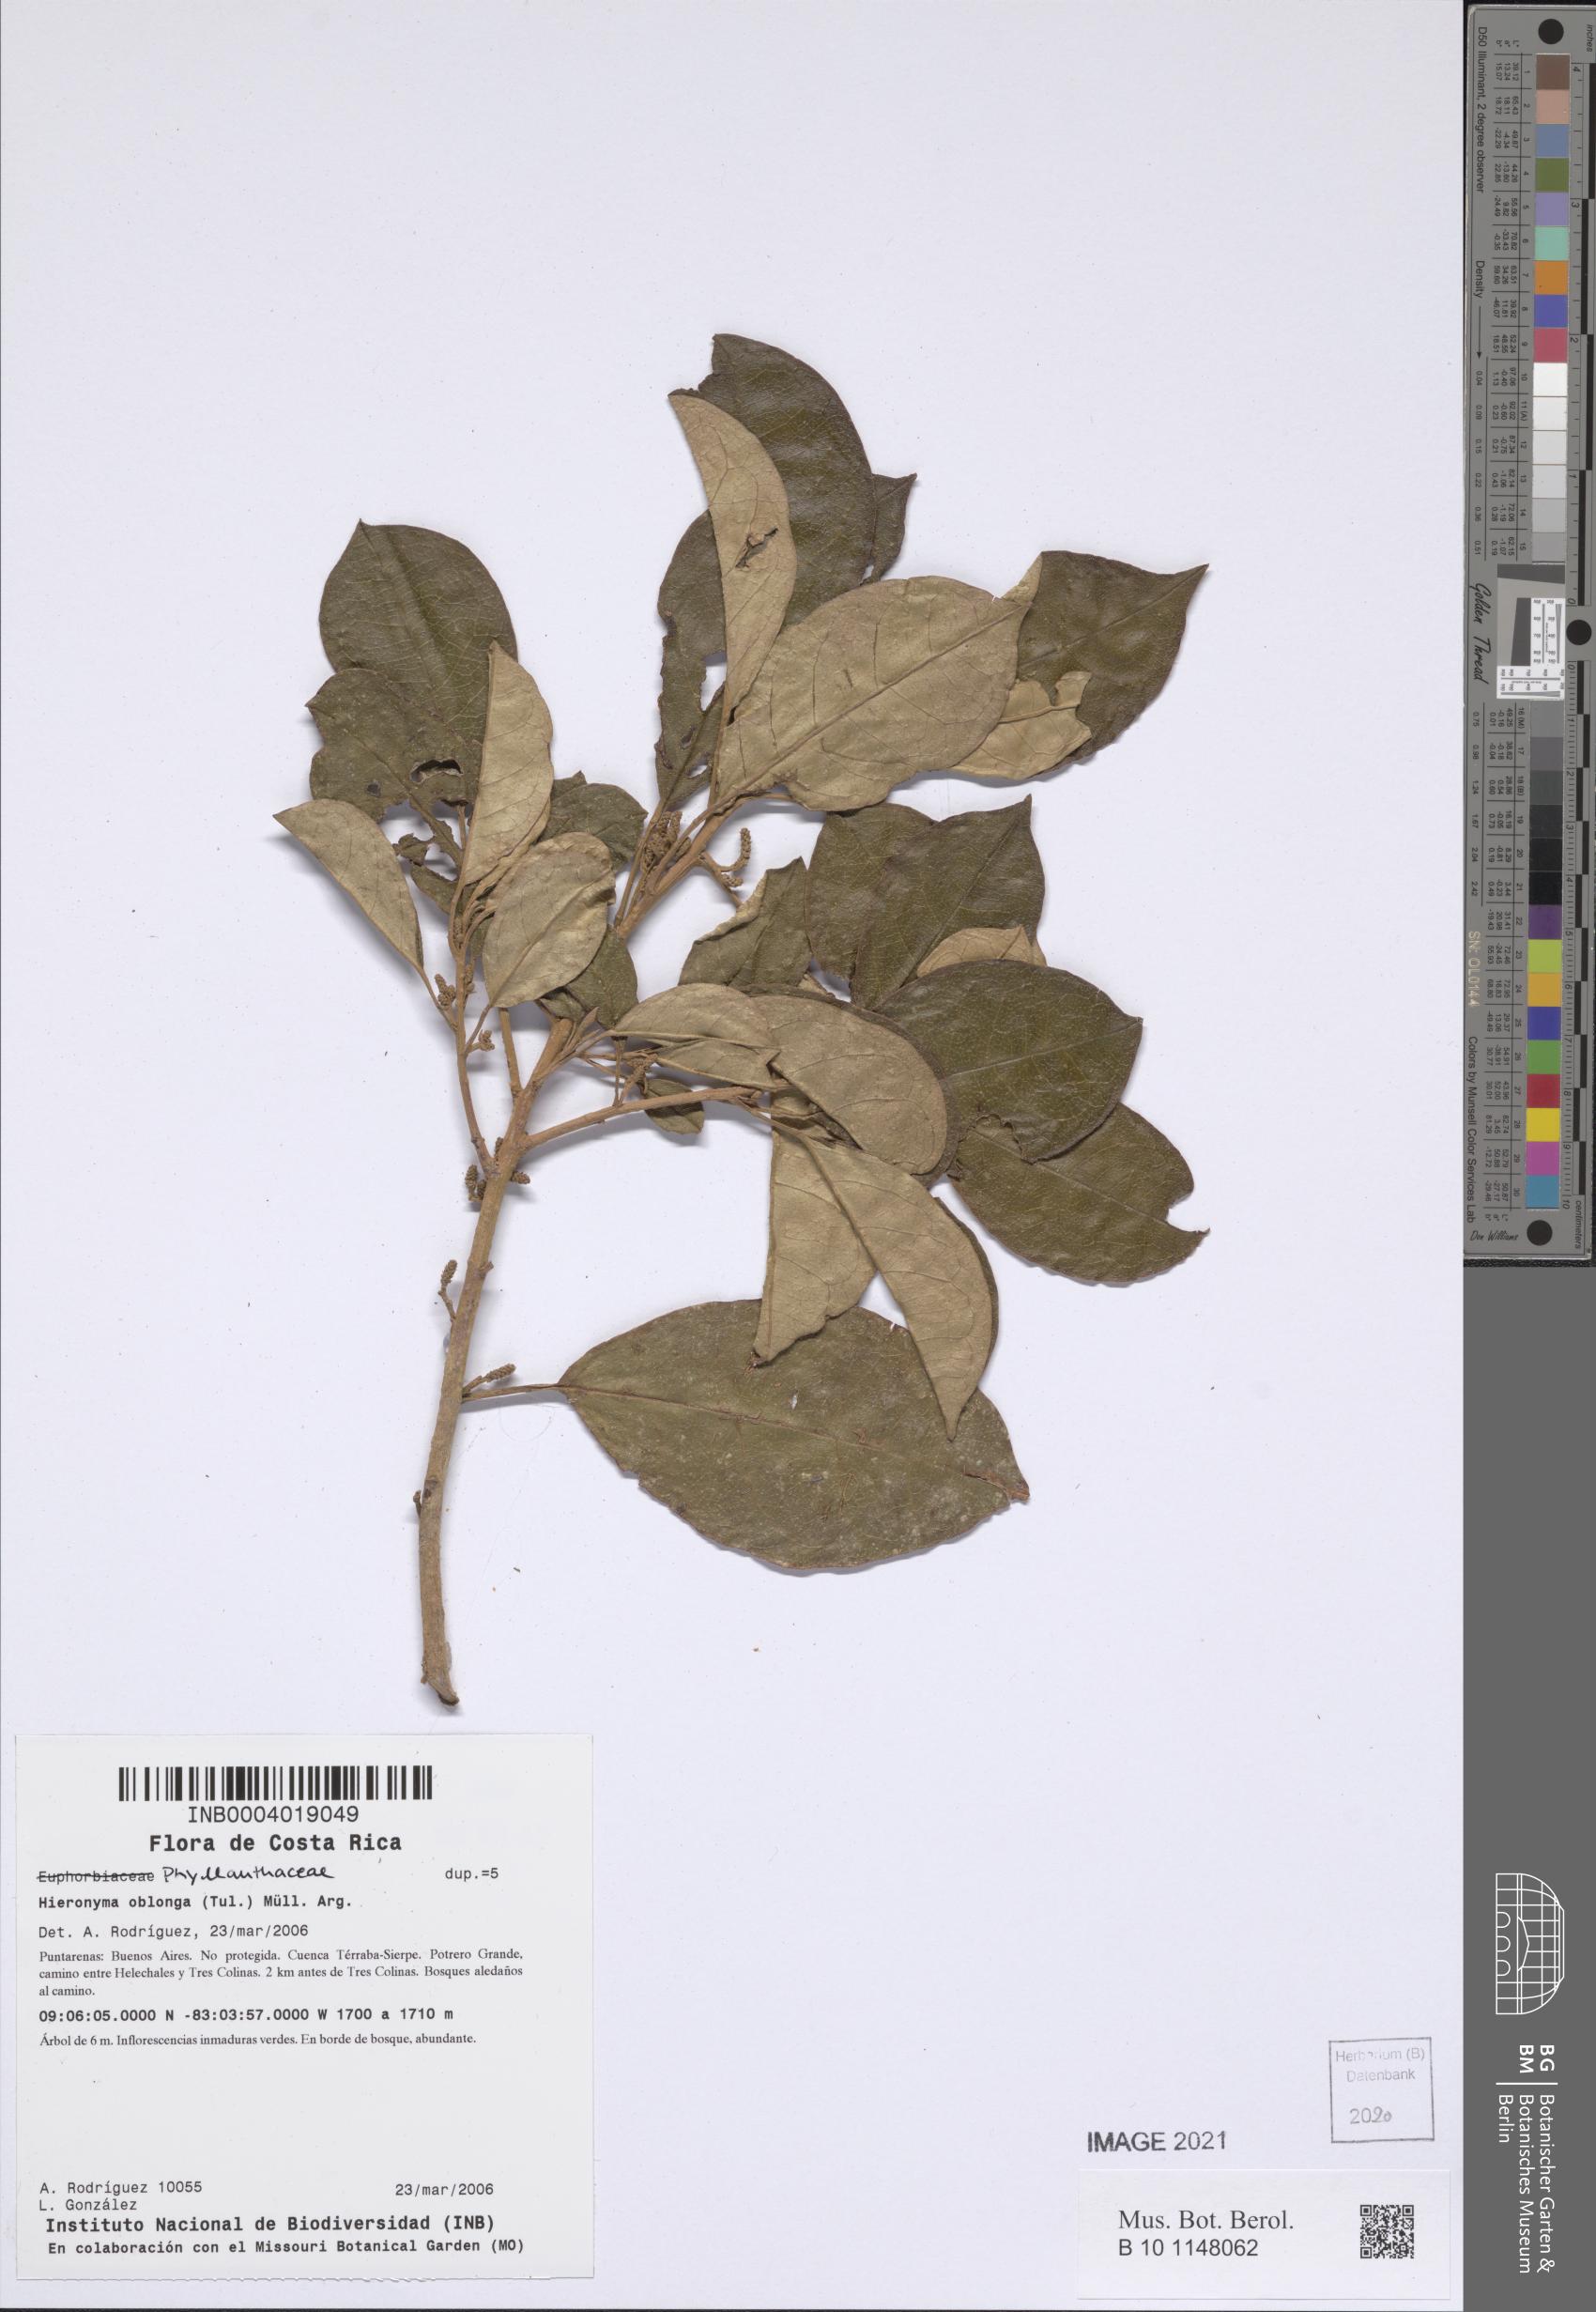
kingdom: Plantae
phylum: Tracheophyta
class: Magnoliopsida
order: Malpighiales
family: Phyllanthaceae
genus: Hieronyma
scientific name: Hieronyma oblonga
